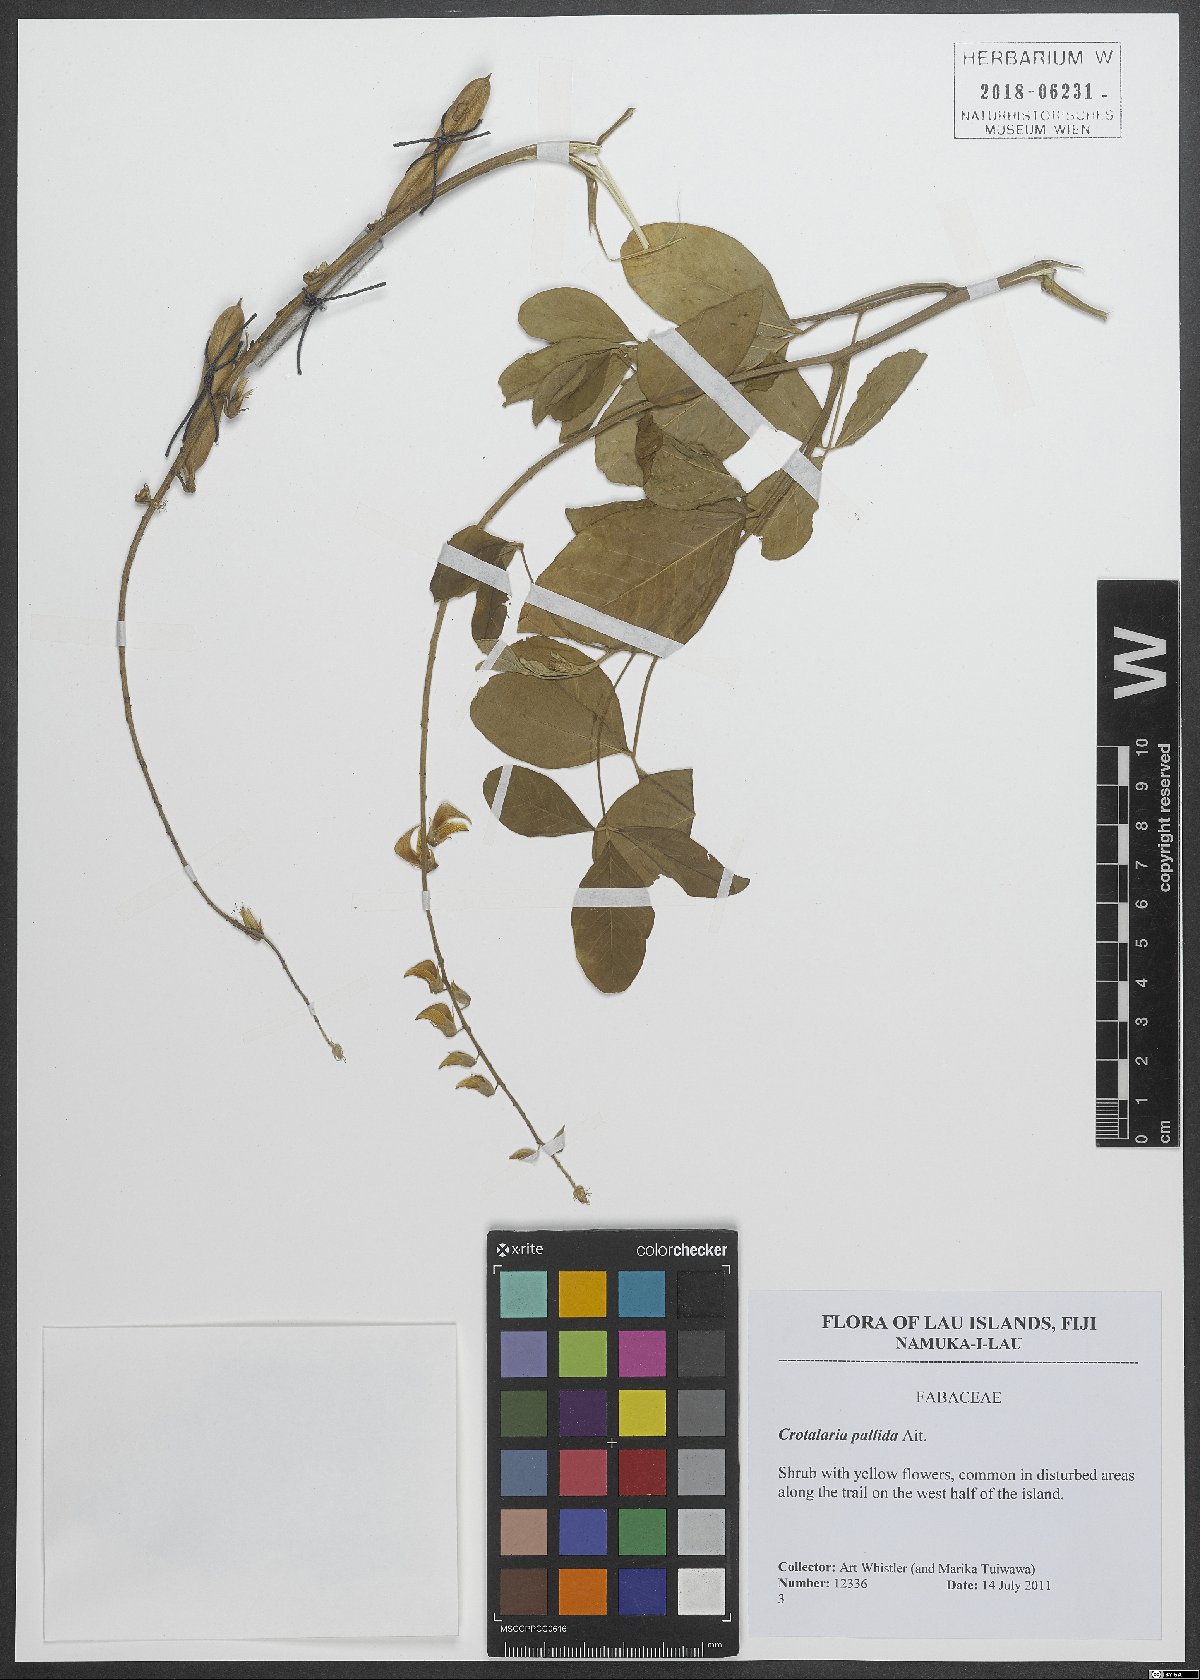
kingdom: Plantae
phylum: Tracheophyta
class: Magnoliopsida
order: Fabales
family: Fabaceae
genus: Crotalaria
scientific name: Crotalaria pallida
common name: Smooth rattlebox
